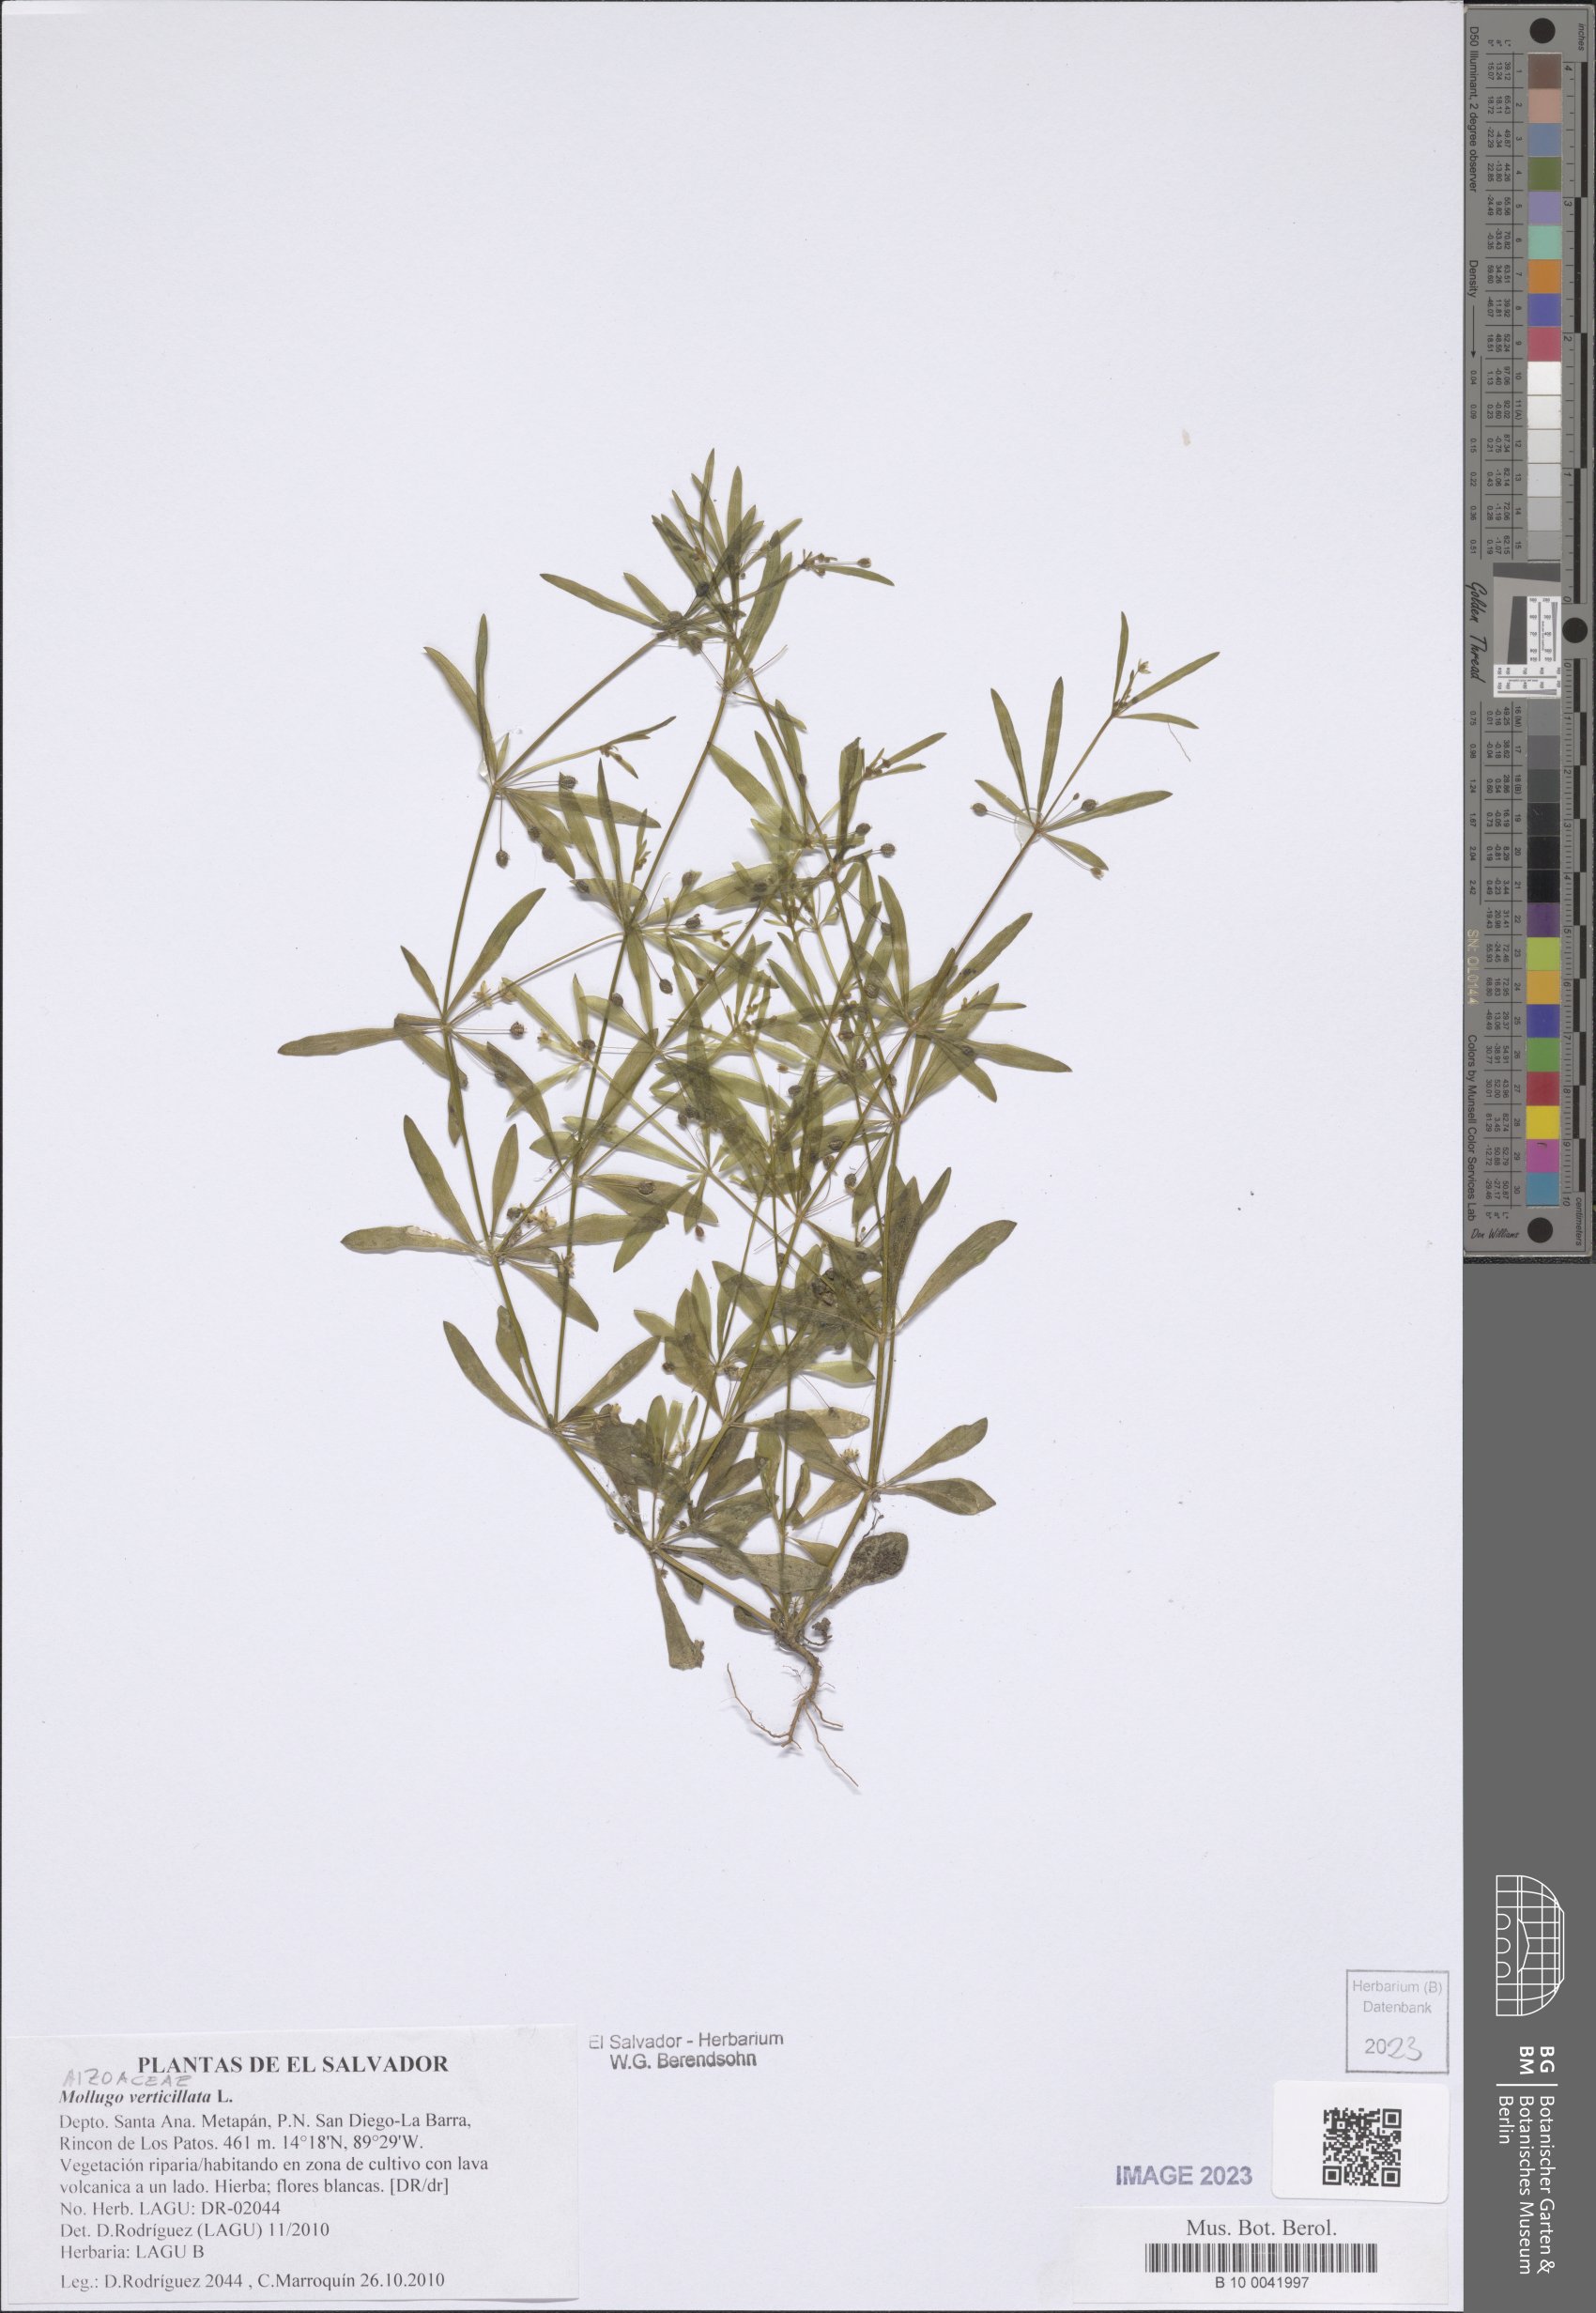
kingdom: Plantae
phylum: Tracheophyta
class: Magnoliopsida
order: Caryophyllales
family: Molluginaceae
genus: Mollugo
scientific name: Mollugo verticillata
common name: Green carpetweed
